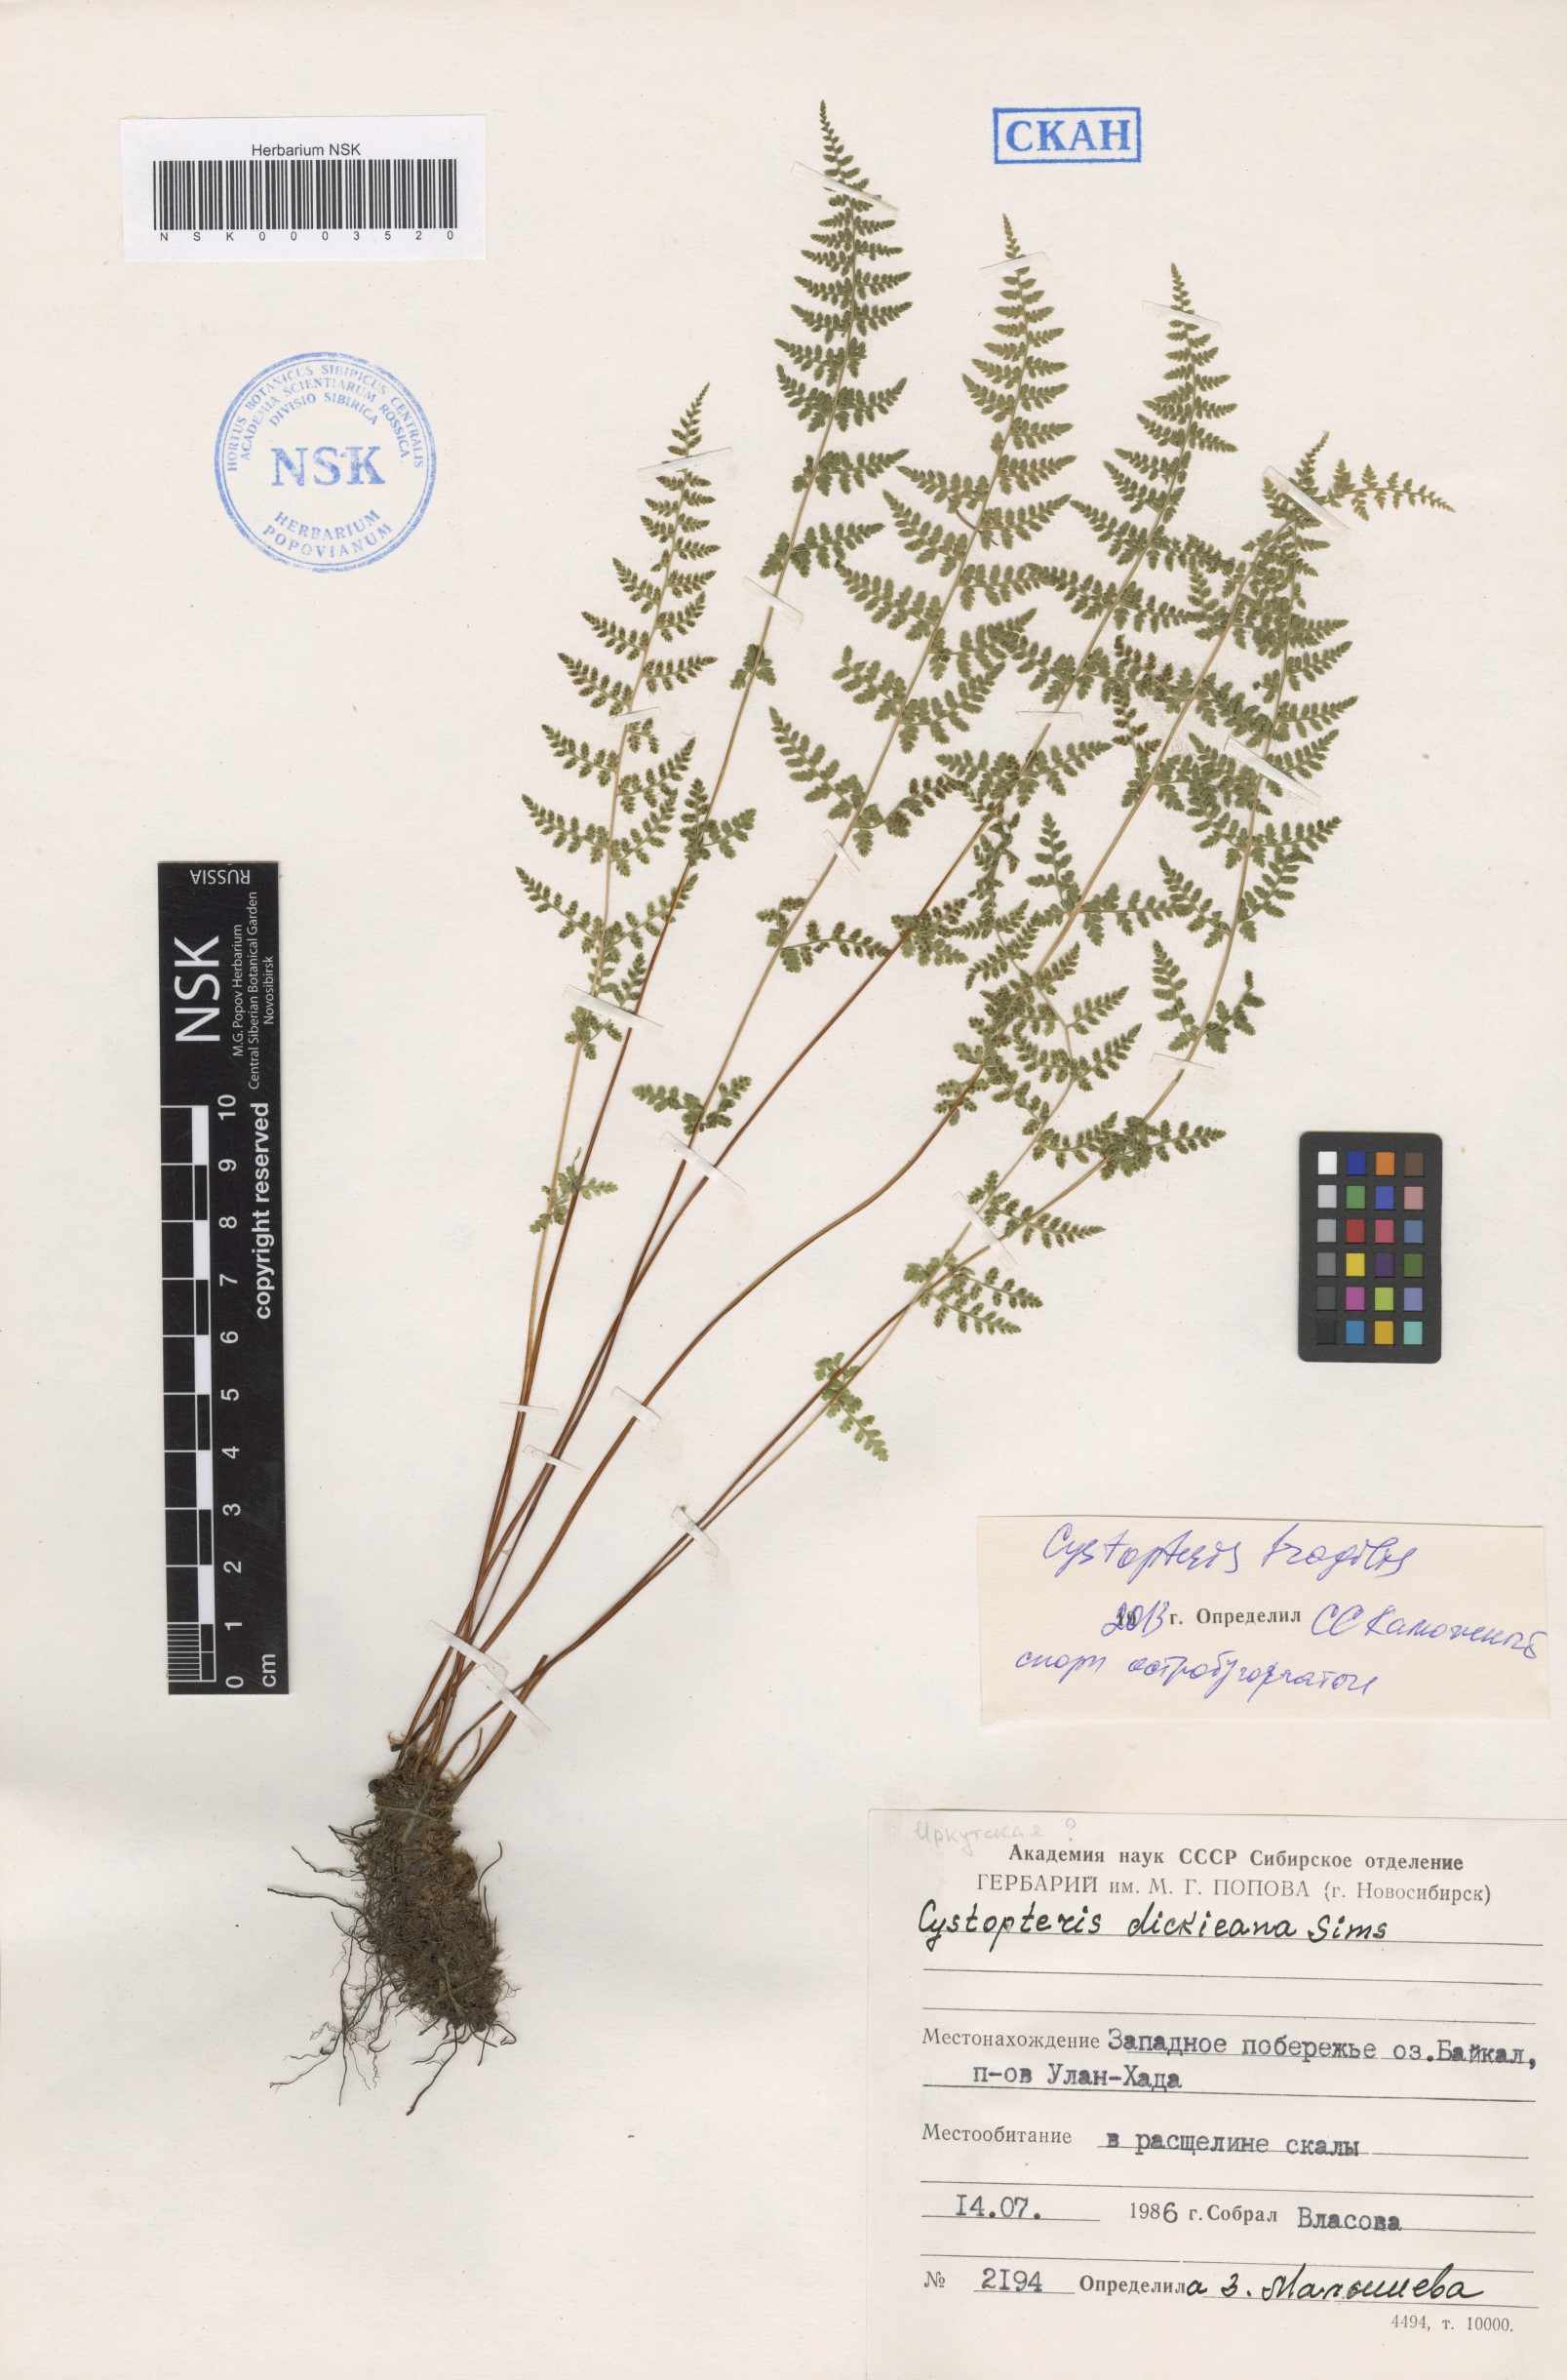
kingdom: Plantae
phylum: Tracheophyta
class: Polypodiopsida
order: Polypodiales
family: Cystopteridaceae
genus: Cystopteris
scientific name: Cystopteris fragilis
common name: Brittle bladder fern
